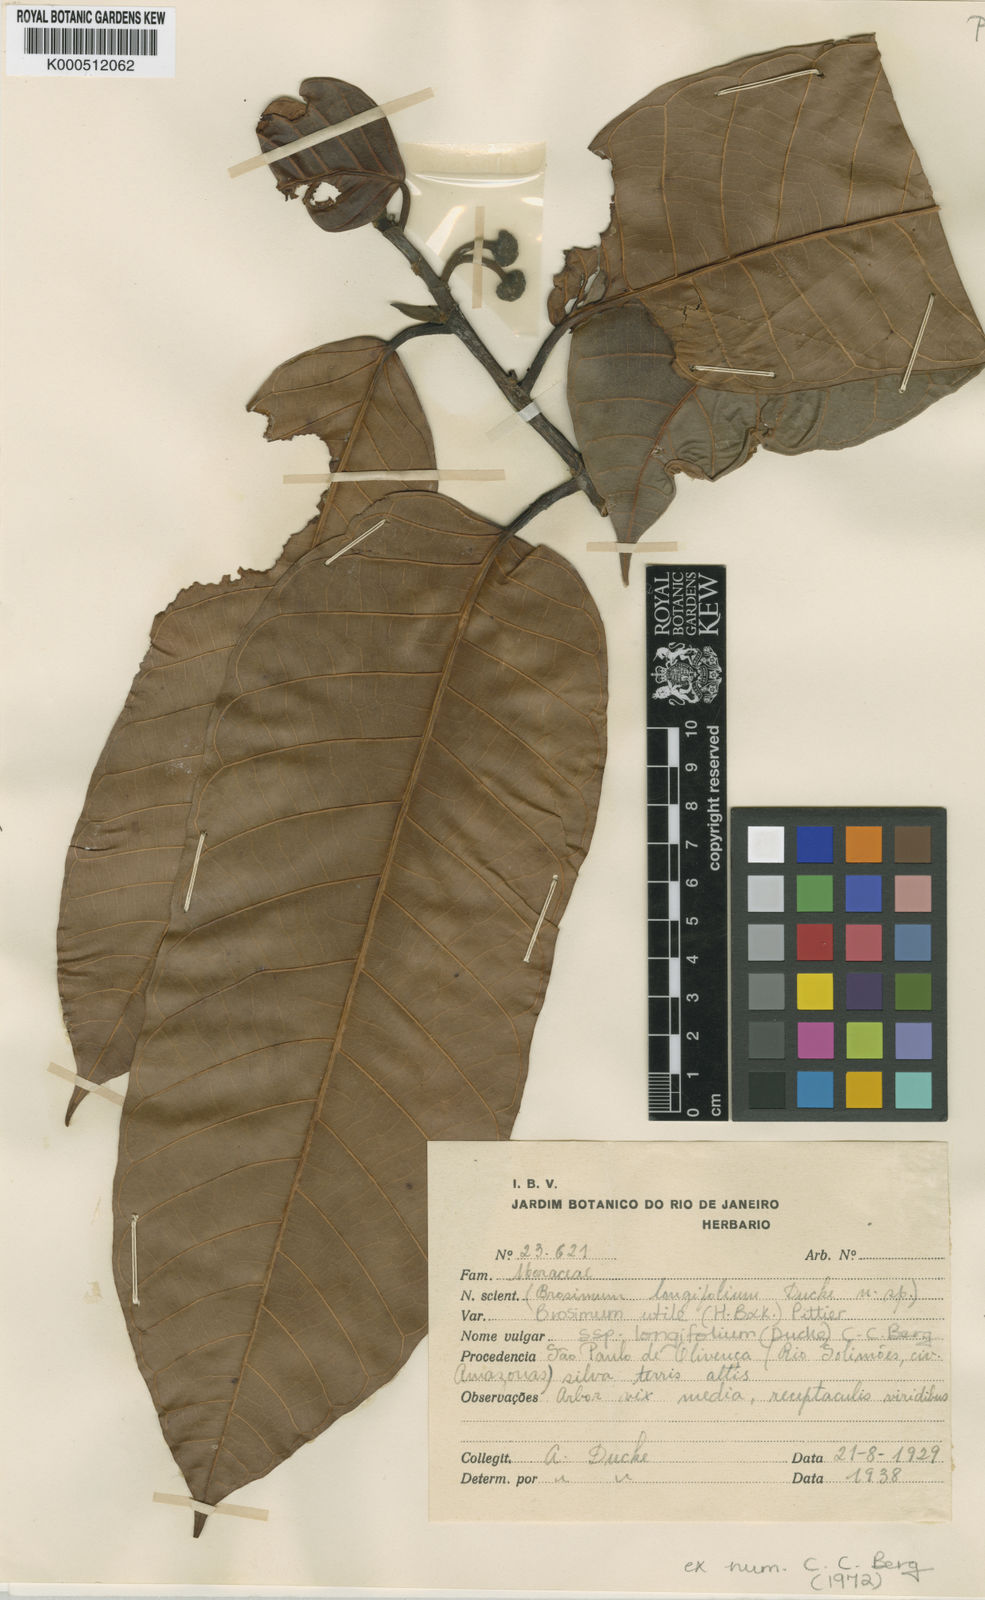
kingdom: Plantae
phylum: Tracheophyta
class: Magnoliopsida
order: Rosales
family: Moraceae
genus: Brosimum
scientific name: Brosimum longifolium
